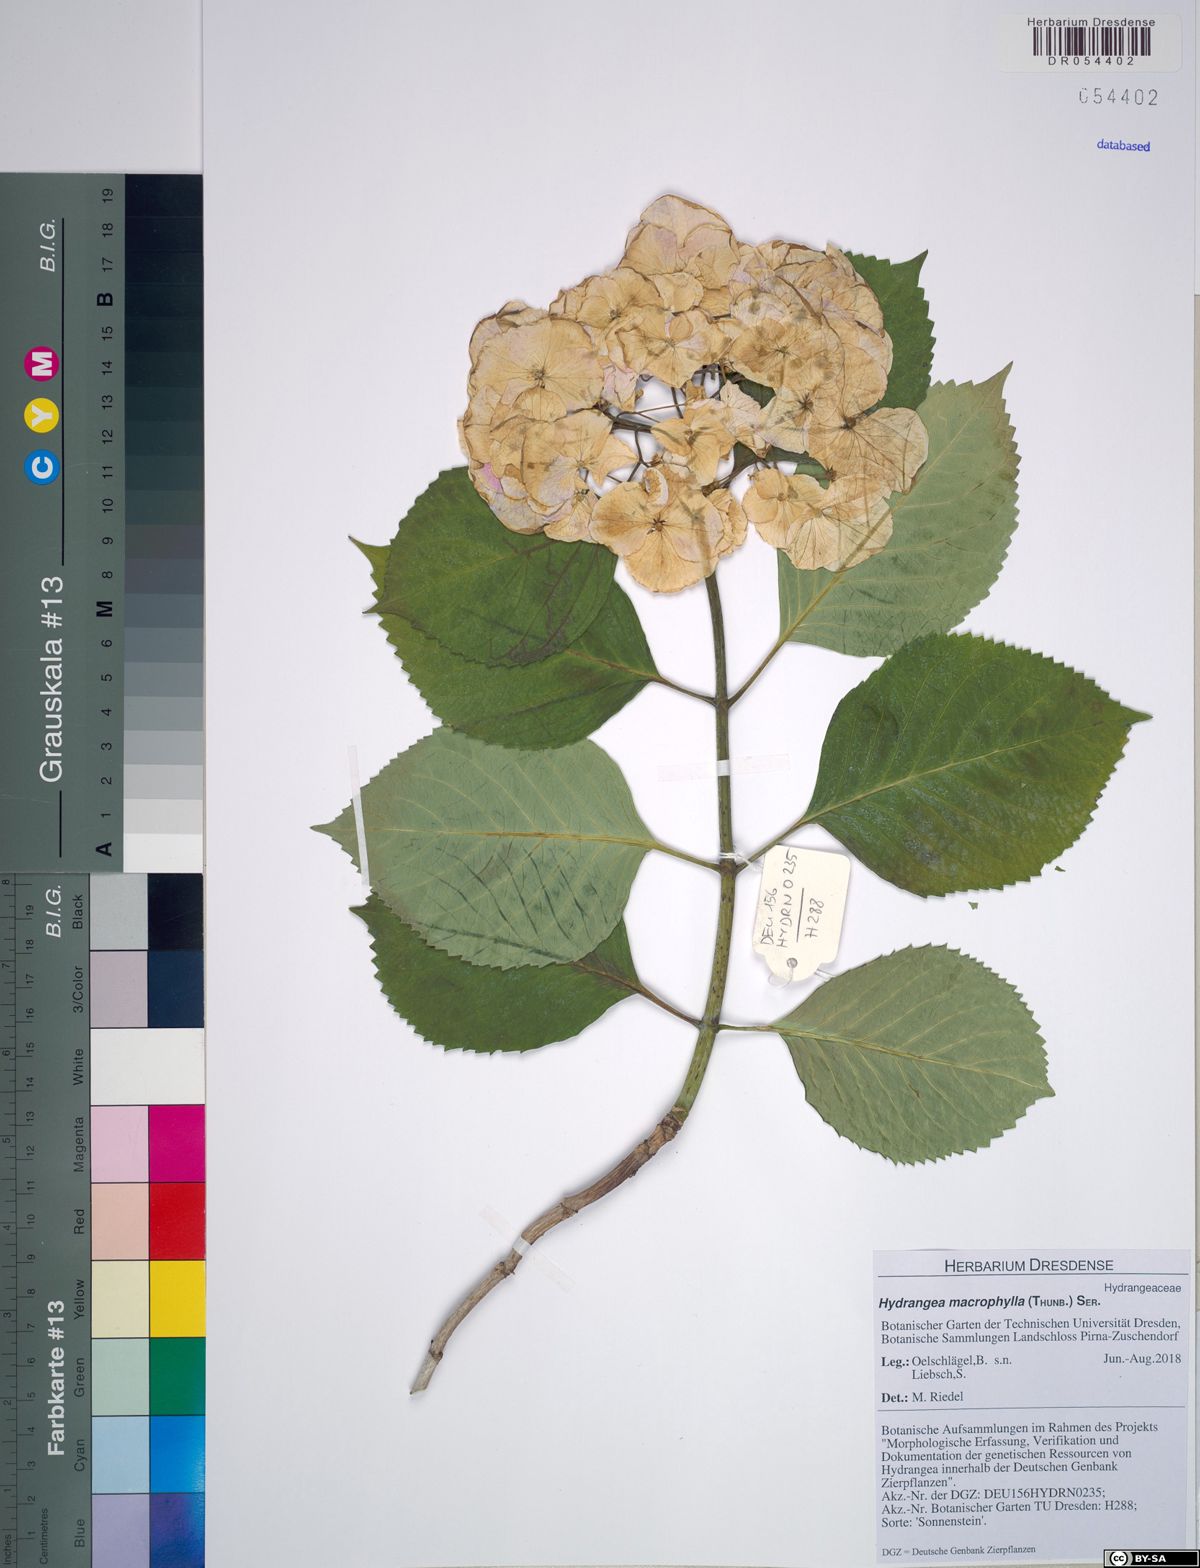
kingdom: Plantae
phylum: Tracheophyta
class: Magnoliopsida
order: Cornales
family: Hydrangeaceae
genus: Hydrangea
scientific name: Hydrangea macrophylla
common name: Hydrangea
